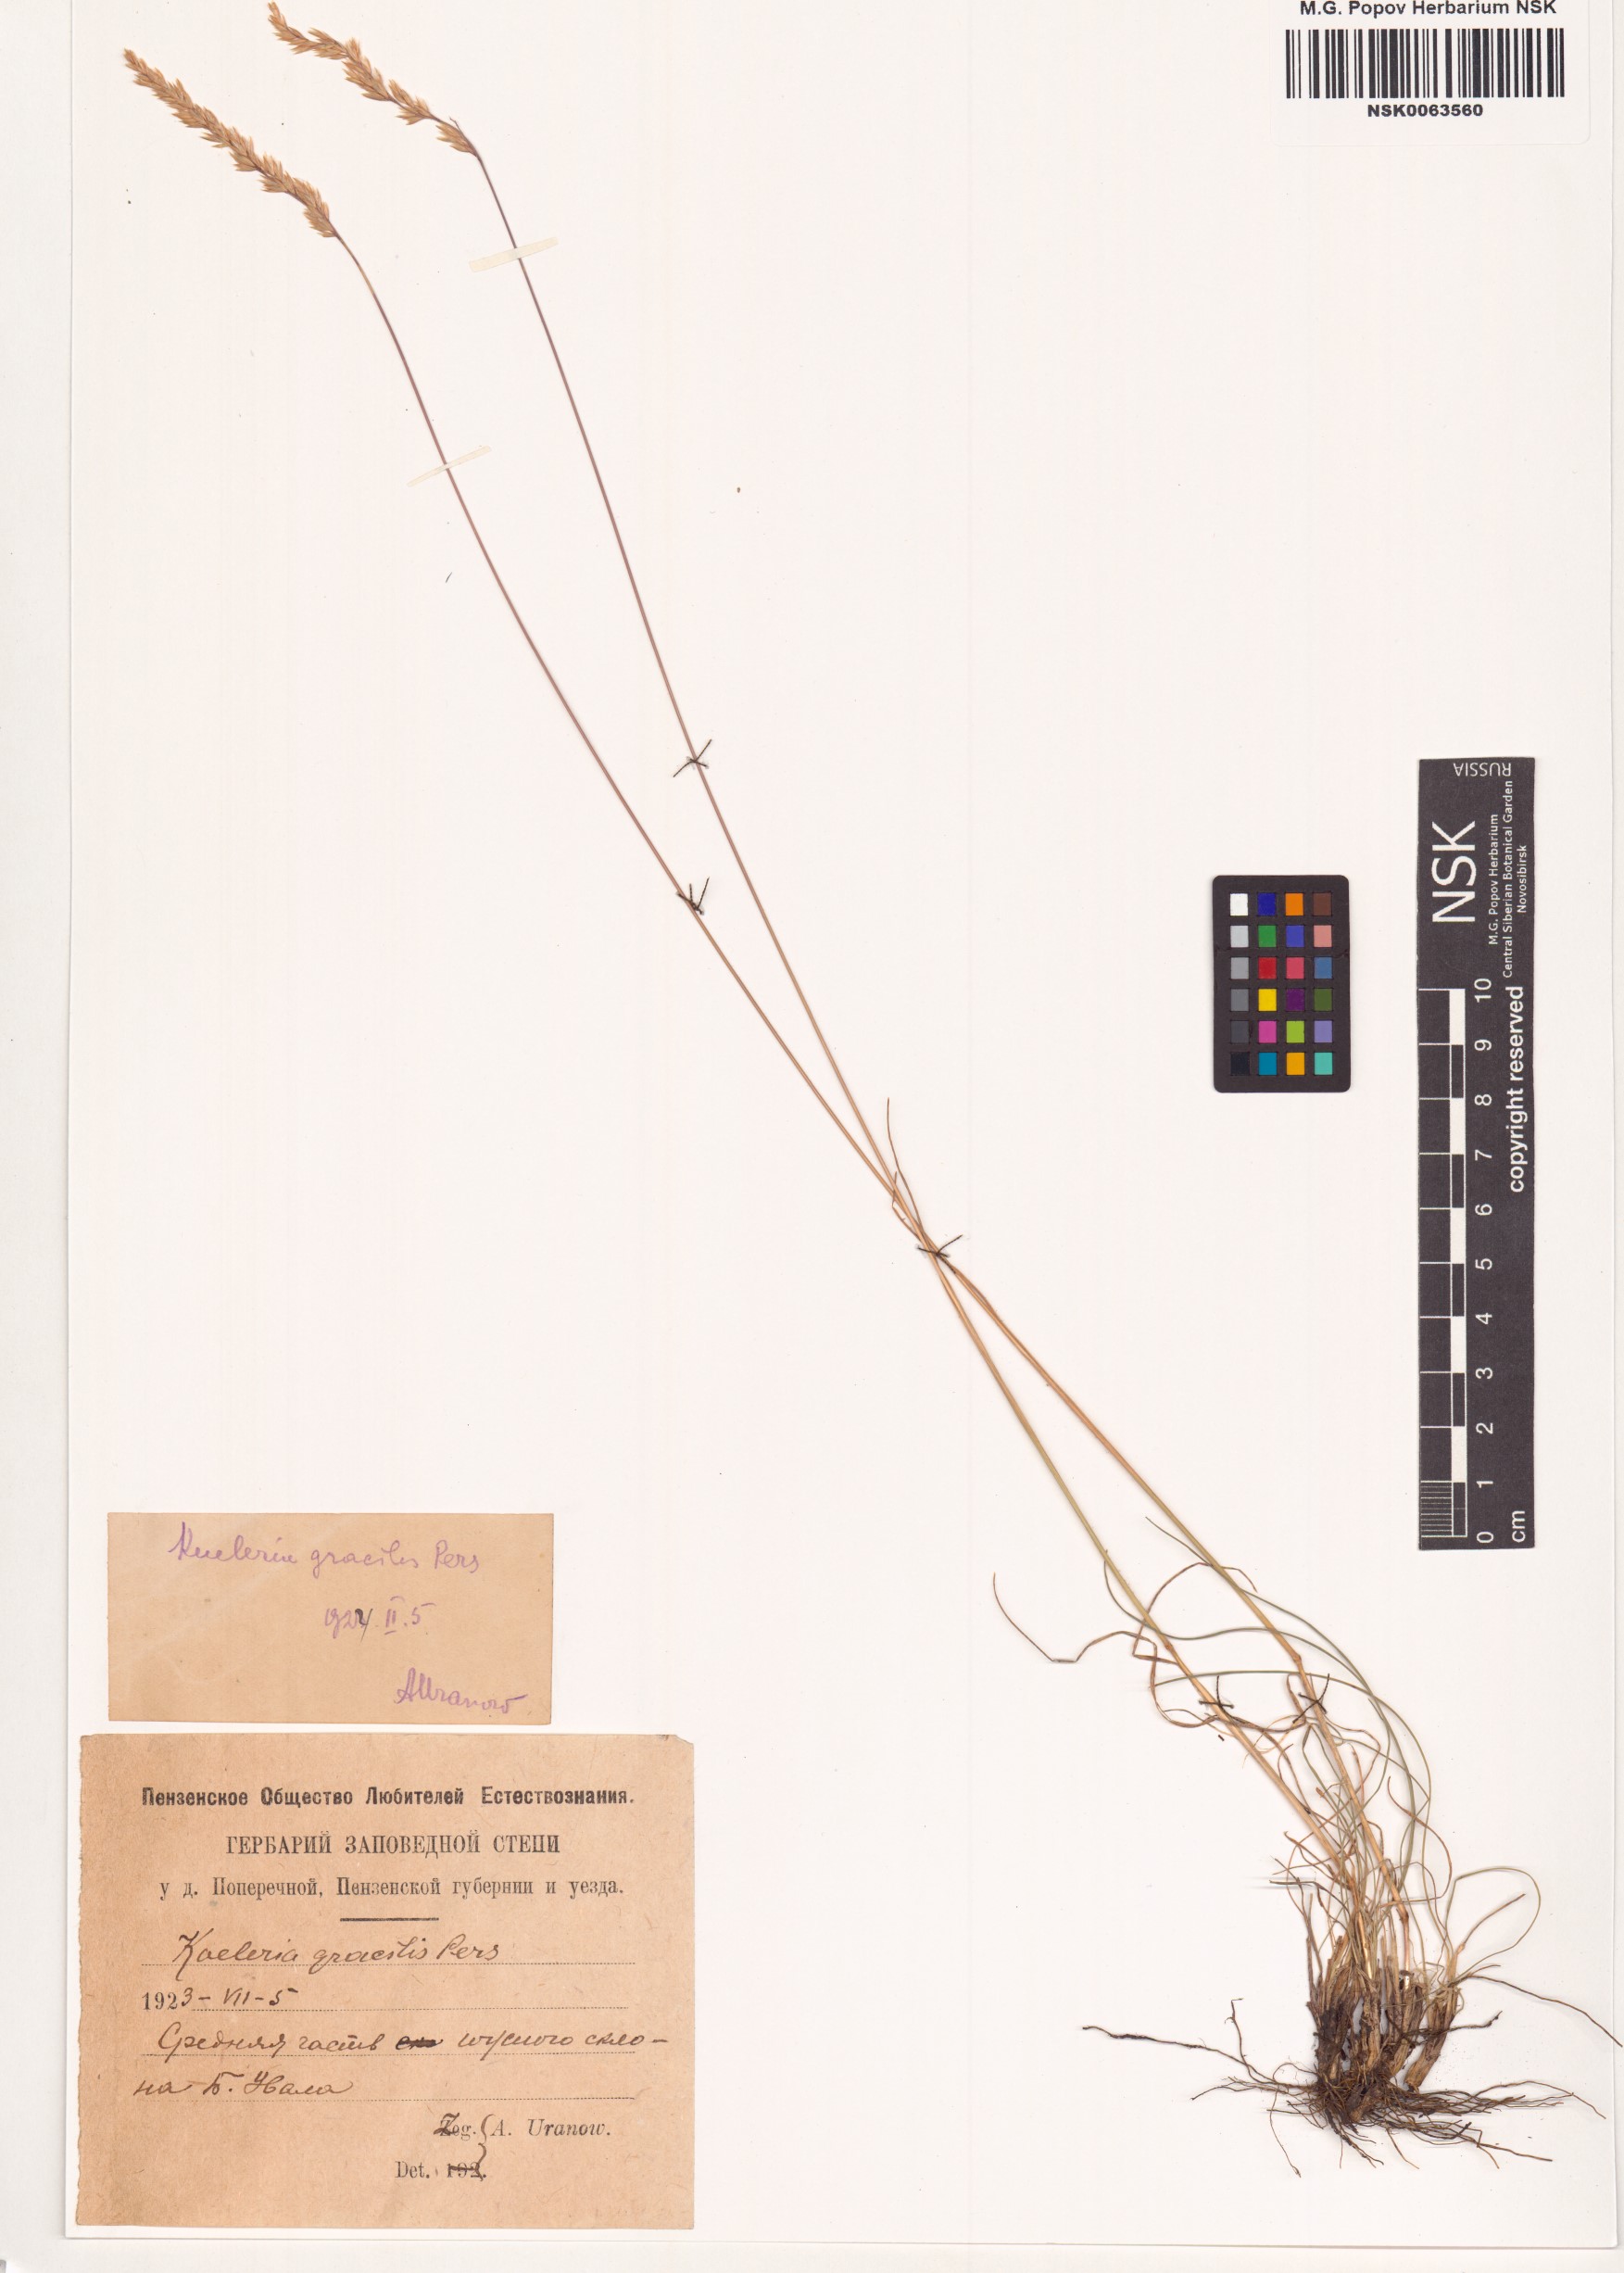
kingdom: Plantae
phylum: Tracheophyta
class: Liliopsida
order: Poales
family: Poaceae
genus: Koeleria
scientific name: Koeleria macrantha
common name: Crested hair-grass
